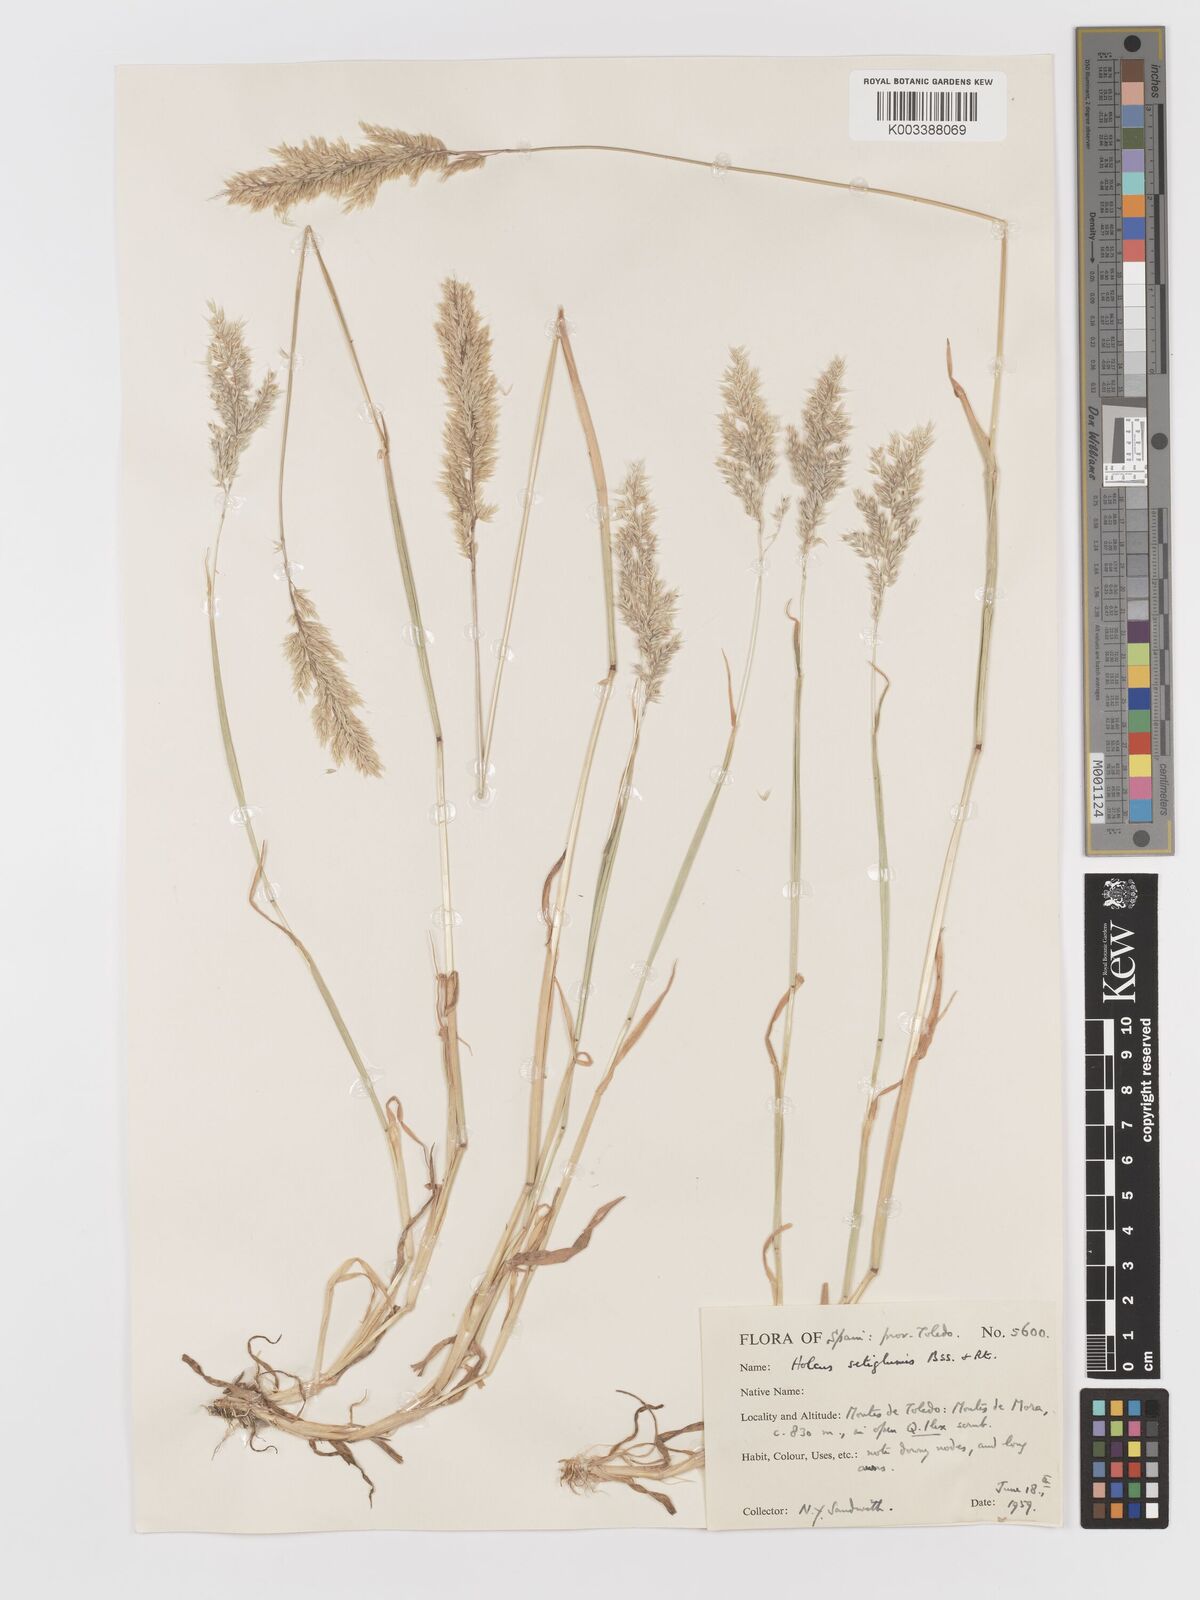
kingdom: Plantae
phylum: Tracheophyta
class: Liliopsida
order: Poales
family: Poaceae
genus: Holcus
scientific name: Holcus annuus
